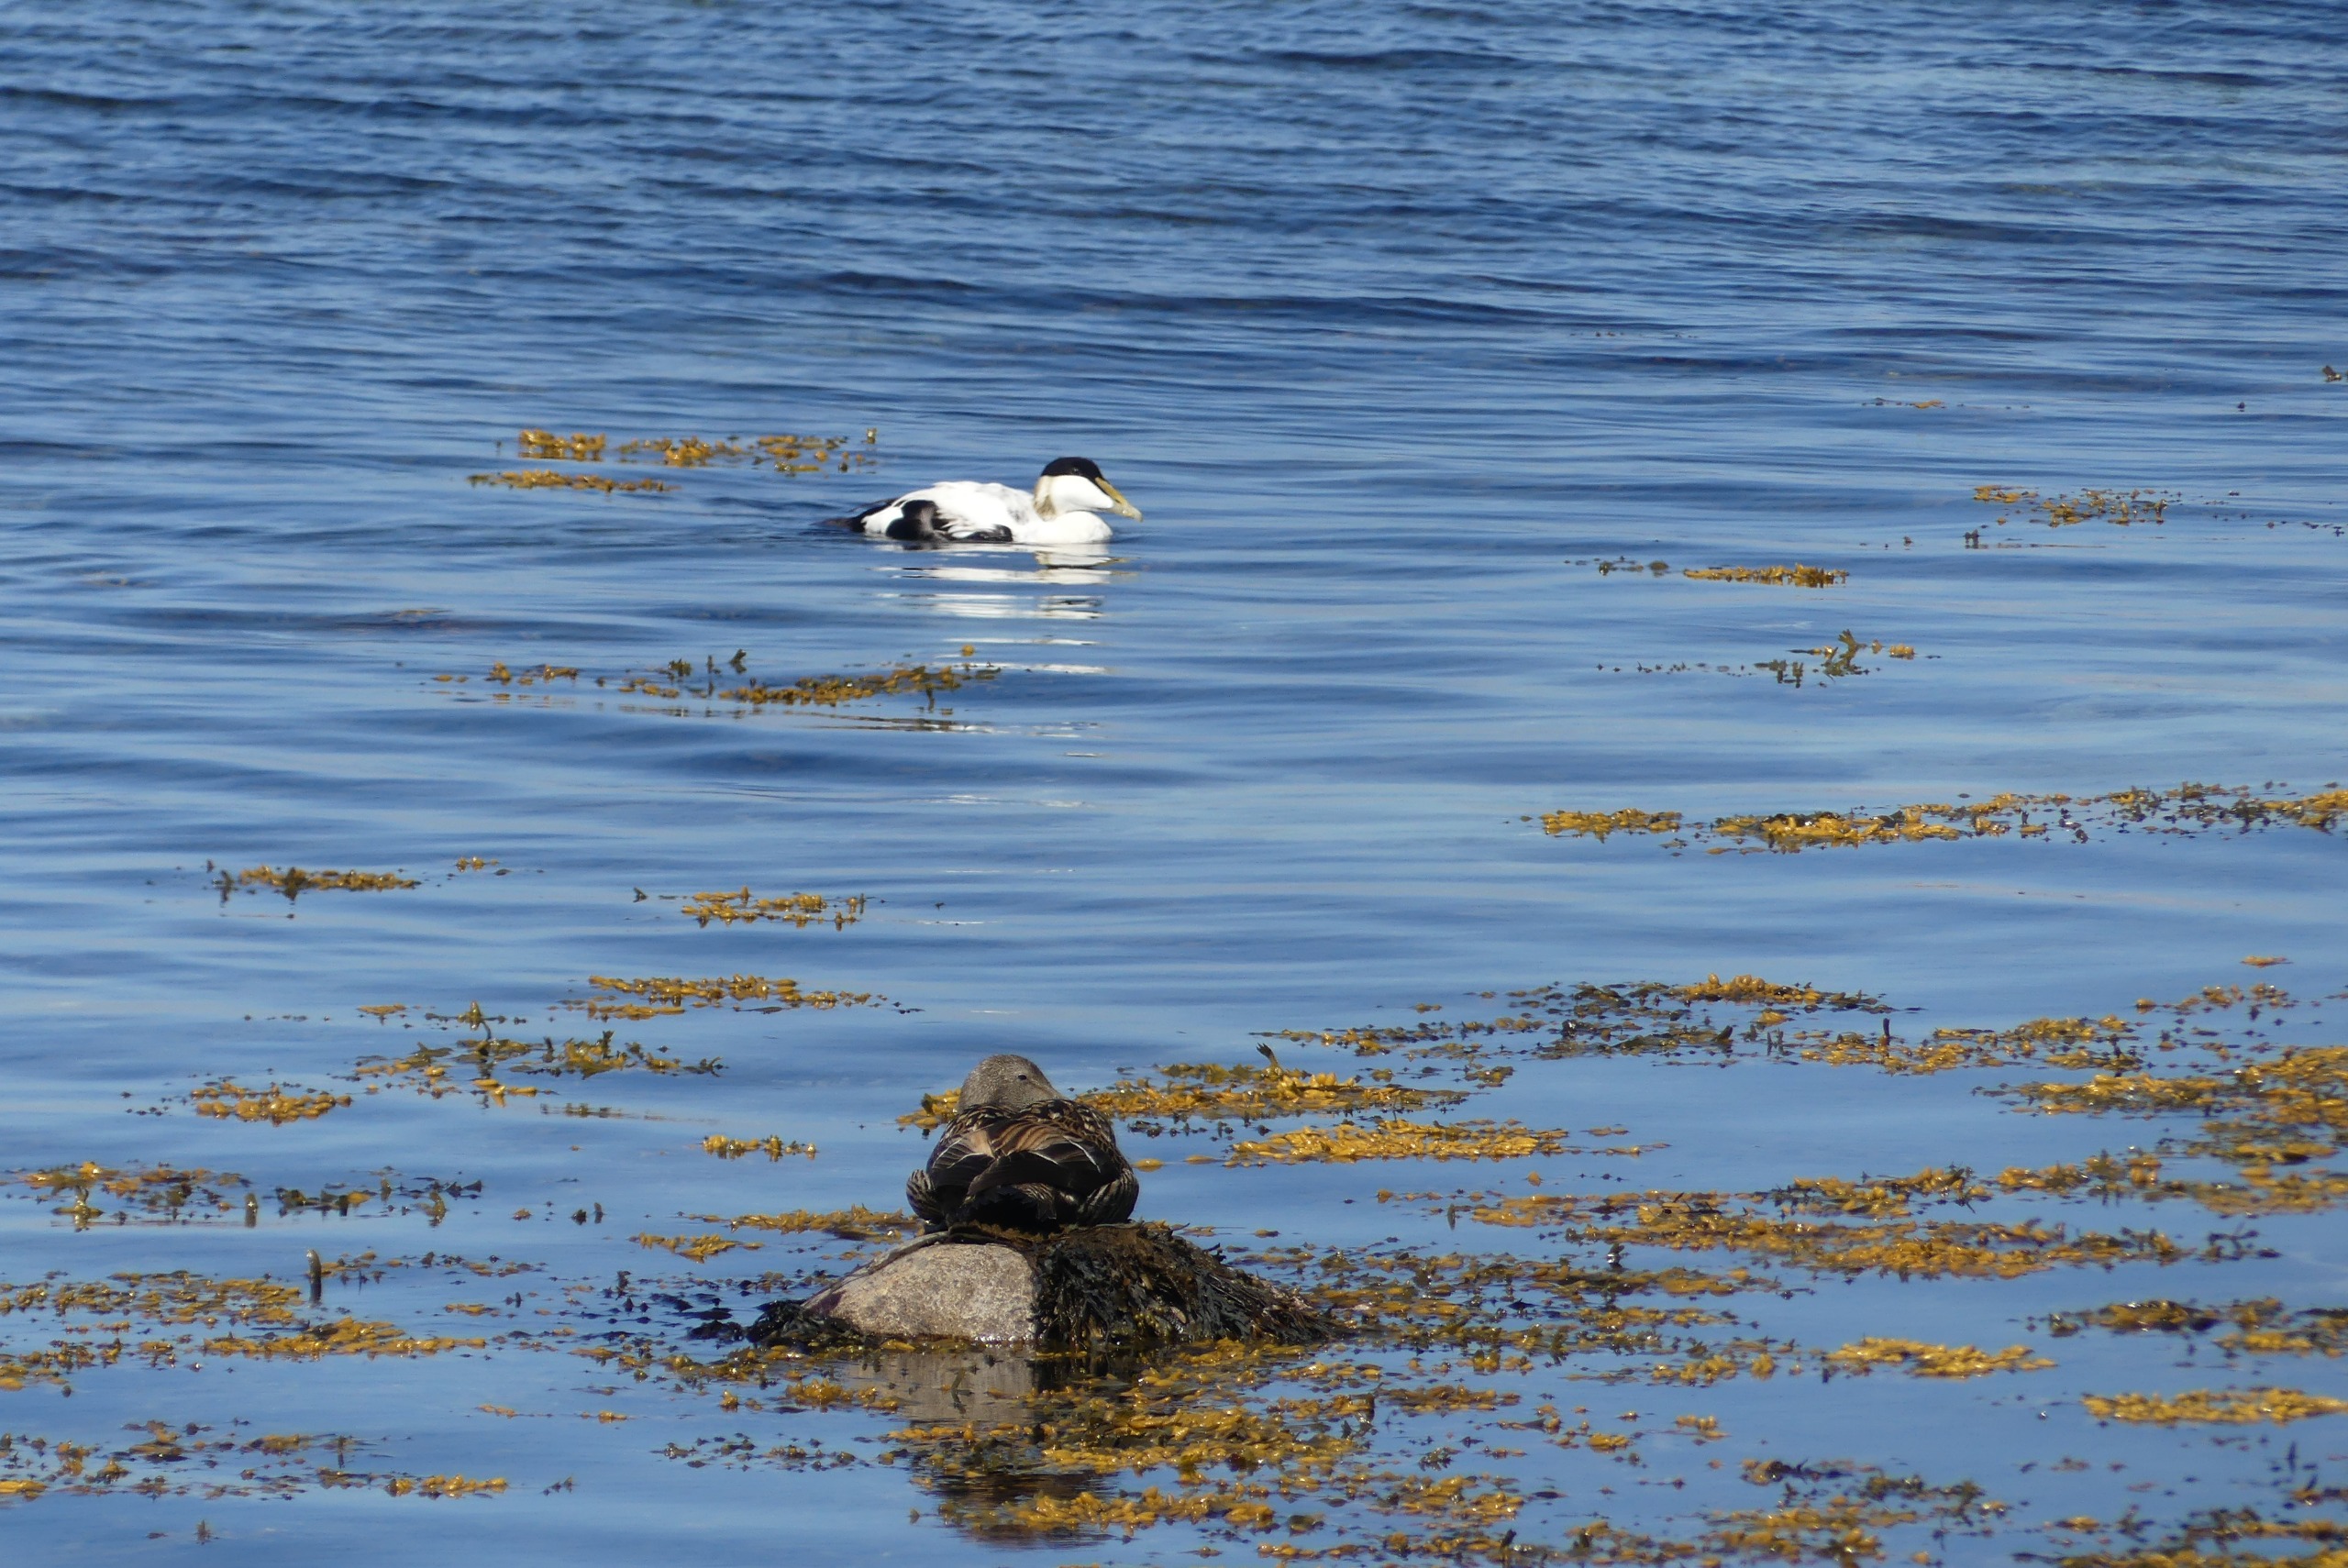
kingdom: Animalia
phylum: Chordata
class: Aves
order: Anseriformes
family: Anatidae
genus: Somateria
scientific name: Somateria mollissima
